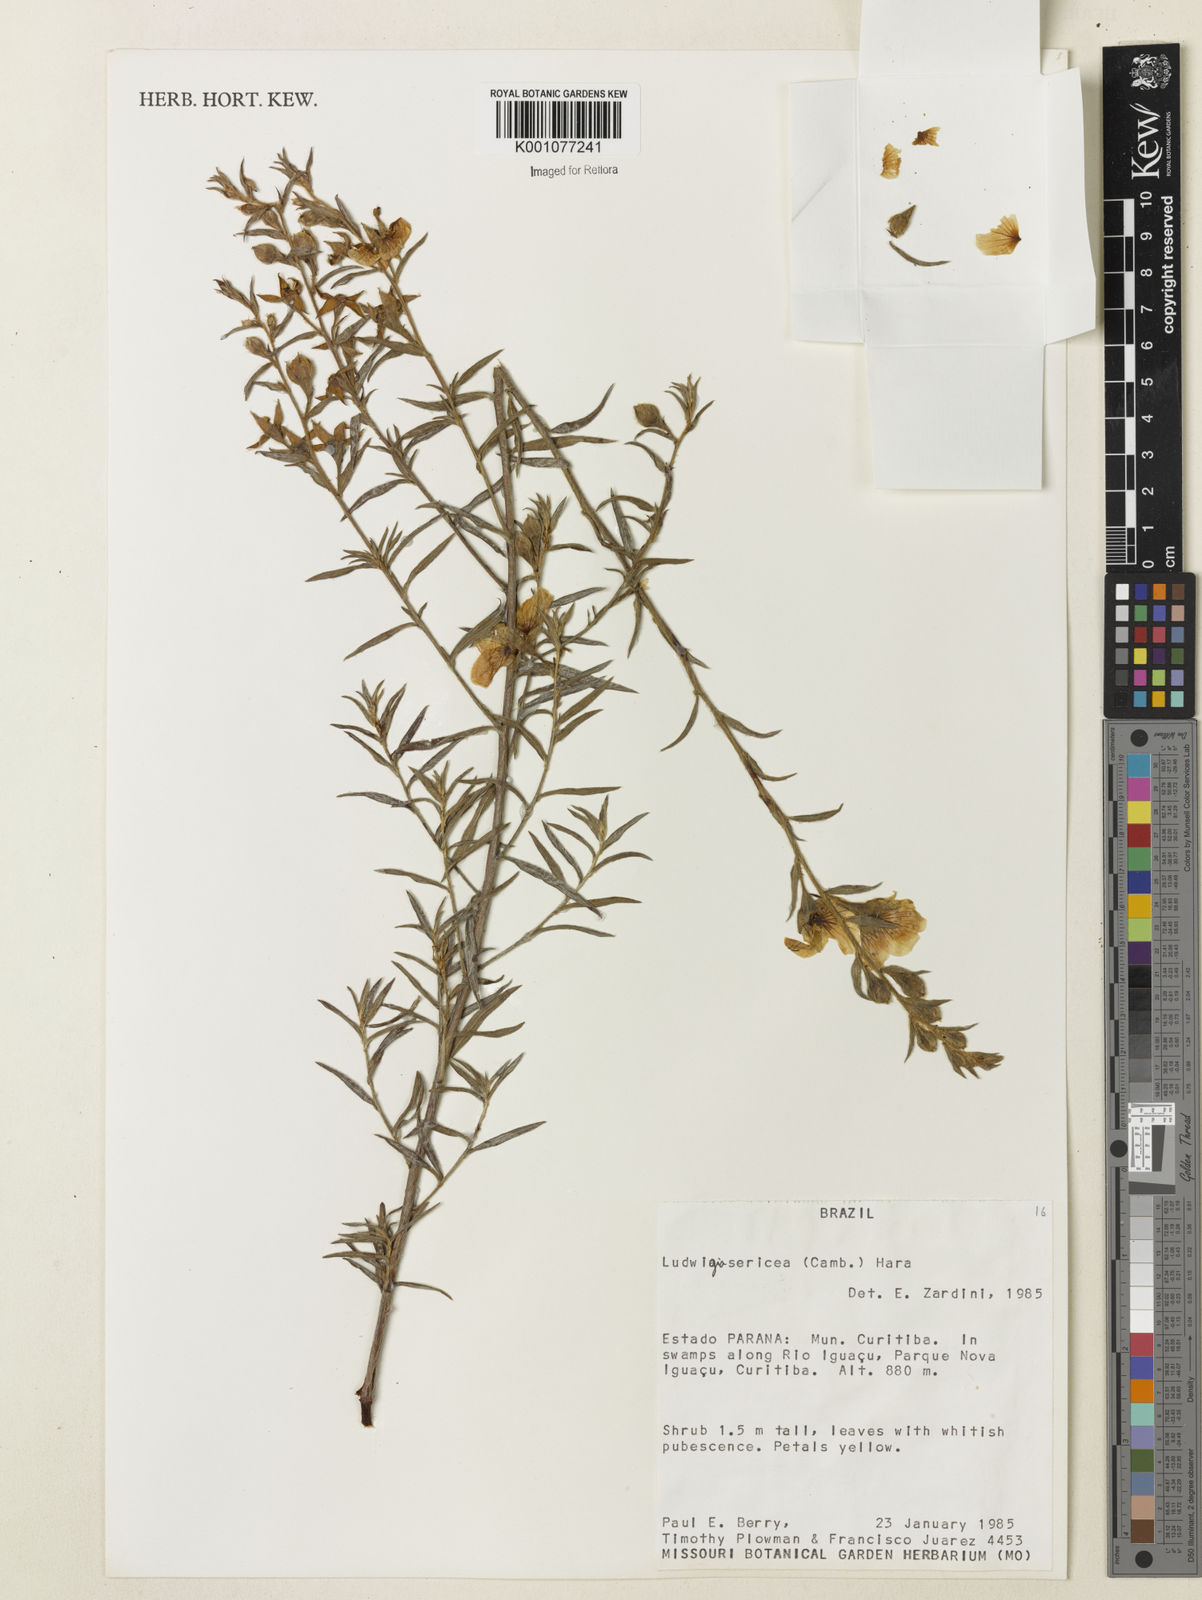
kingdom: Plantae
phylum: Tracheophyta
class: Magnoliopsida
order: Myrtales
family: Onagraceae
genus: Ludwigia
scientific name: Ludwigia sericea
